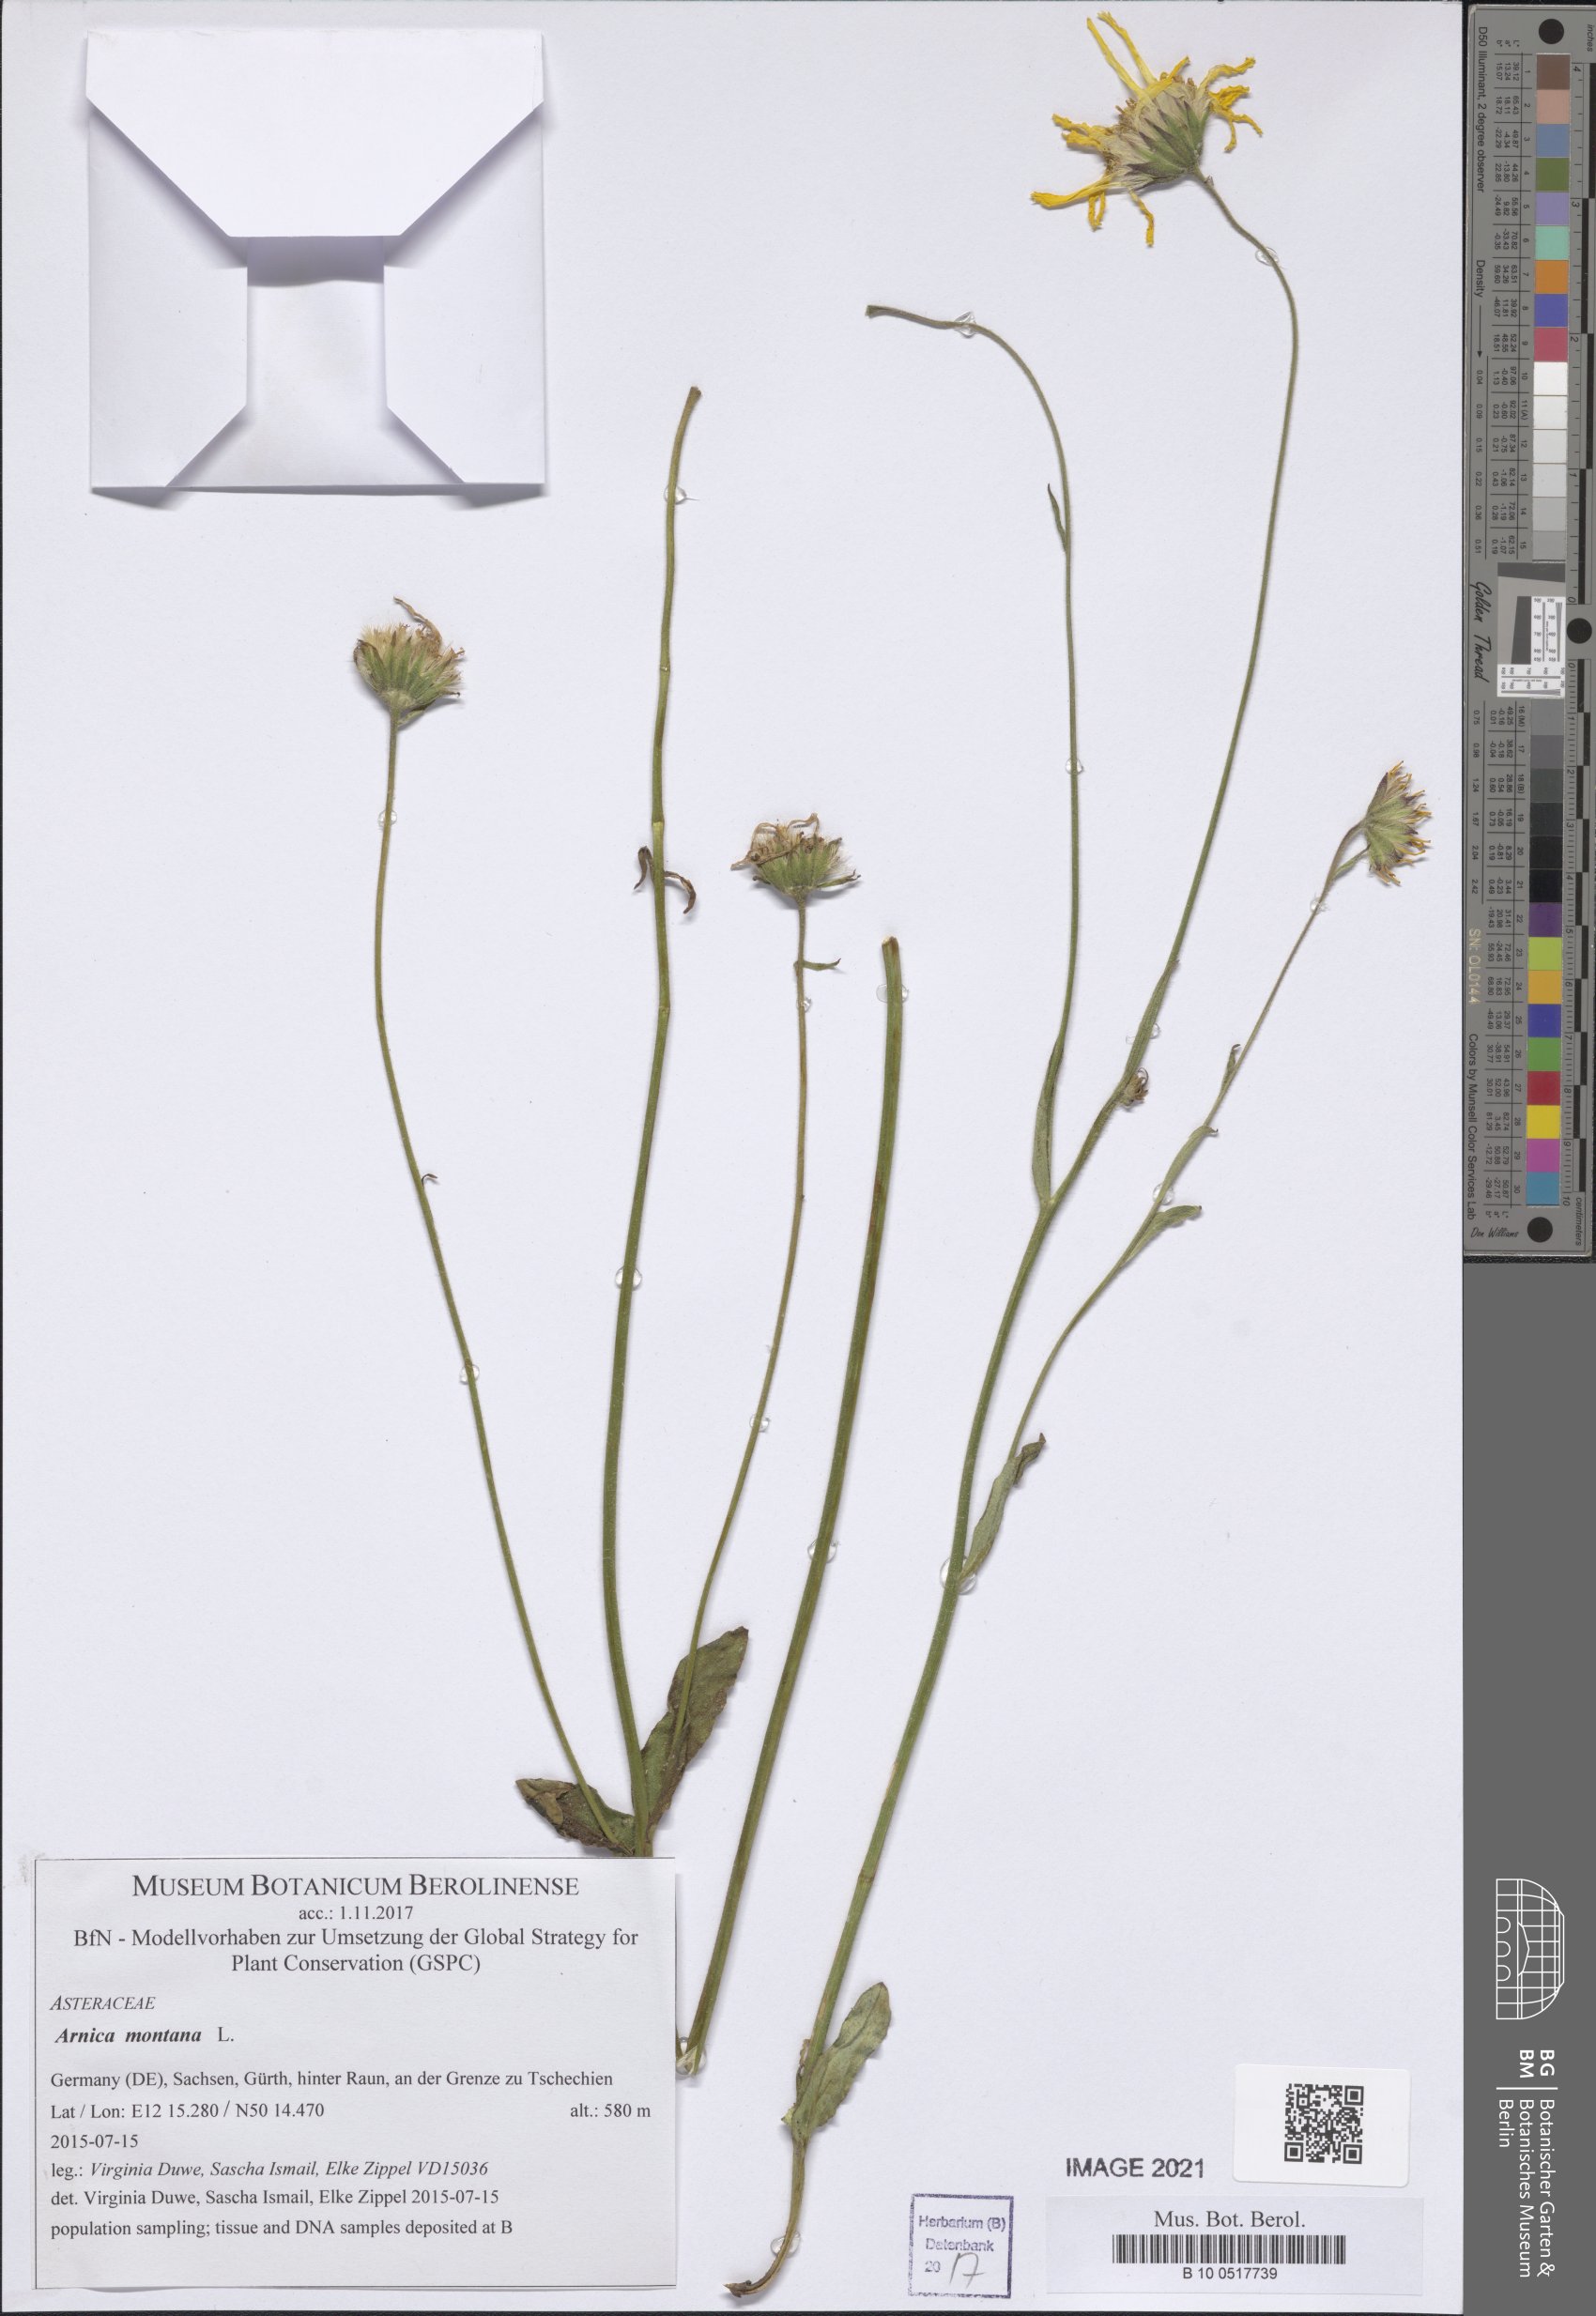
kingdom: Plantae
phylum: Tracheophyta
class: Magnoliopsida
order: Asterales
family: Asteraceae
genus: Arnica
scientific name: Arnica montana
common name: Leopard's bane
